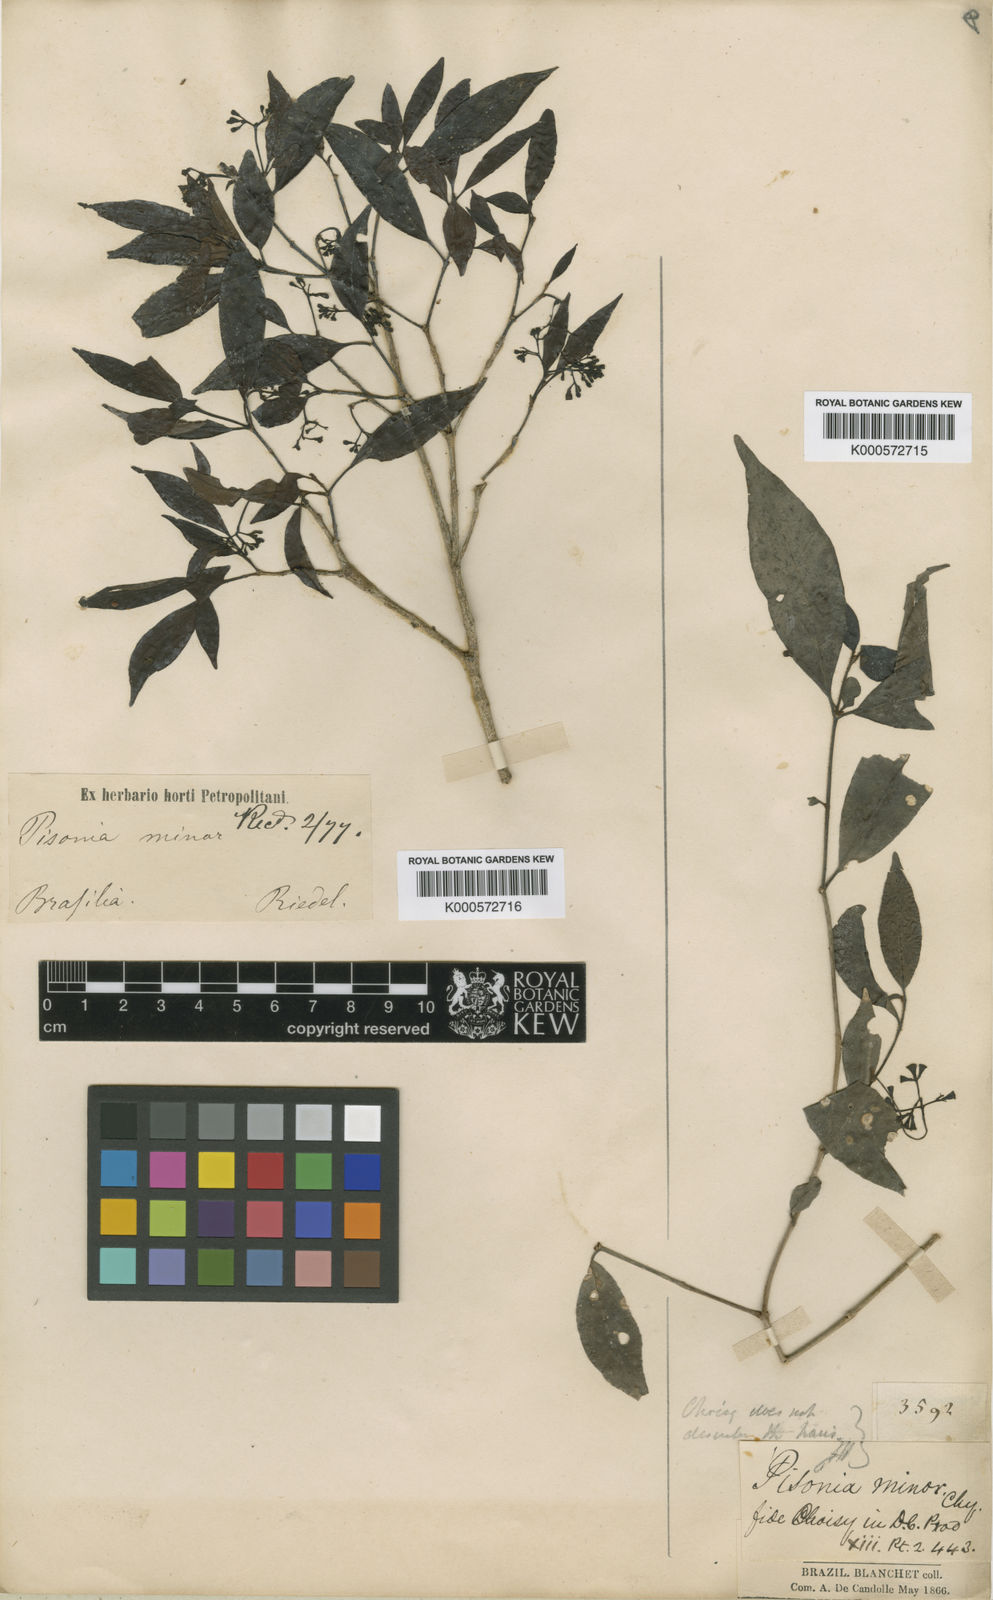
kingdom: Plantae
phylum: Tracheophyta
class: Magnoliopsida
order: Caryophyllales
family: Nyctaginaceae
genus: Guapira
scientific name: Guapira
